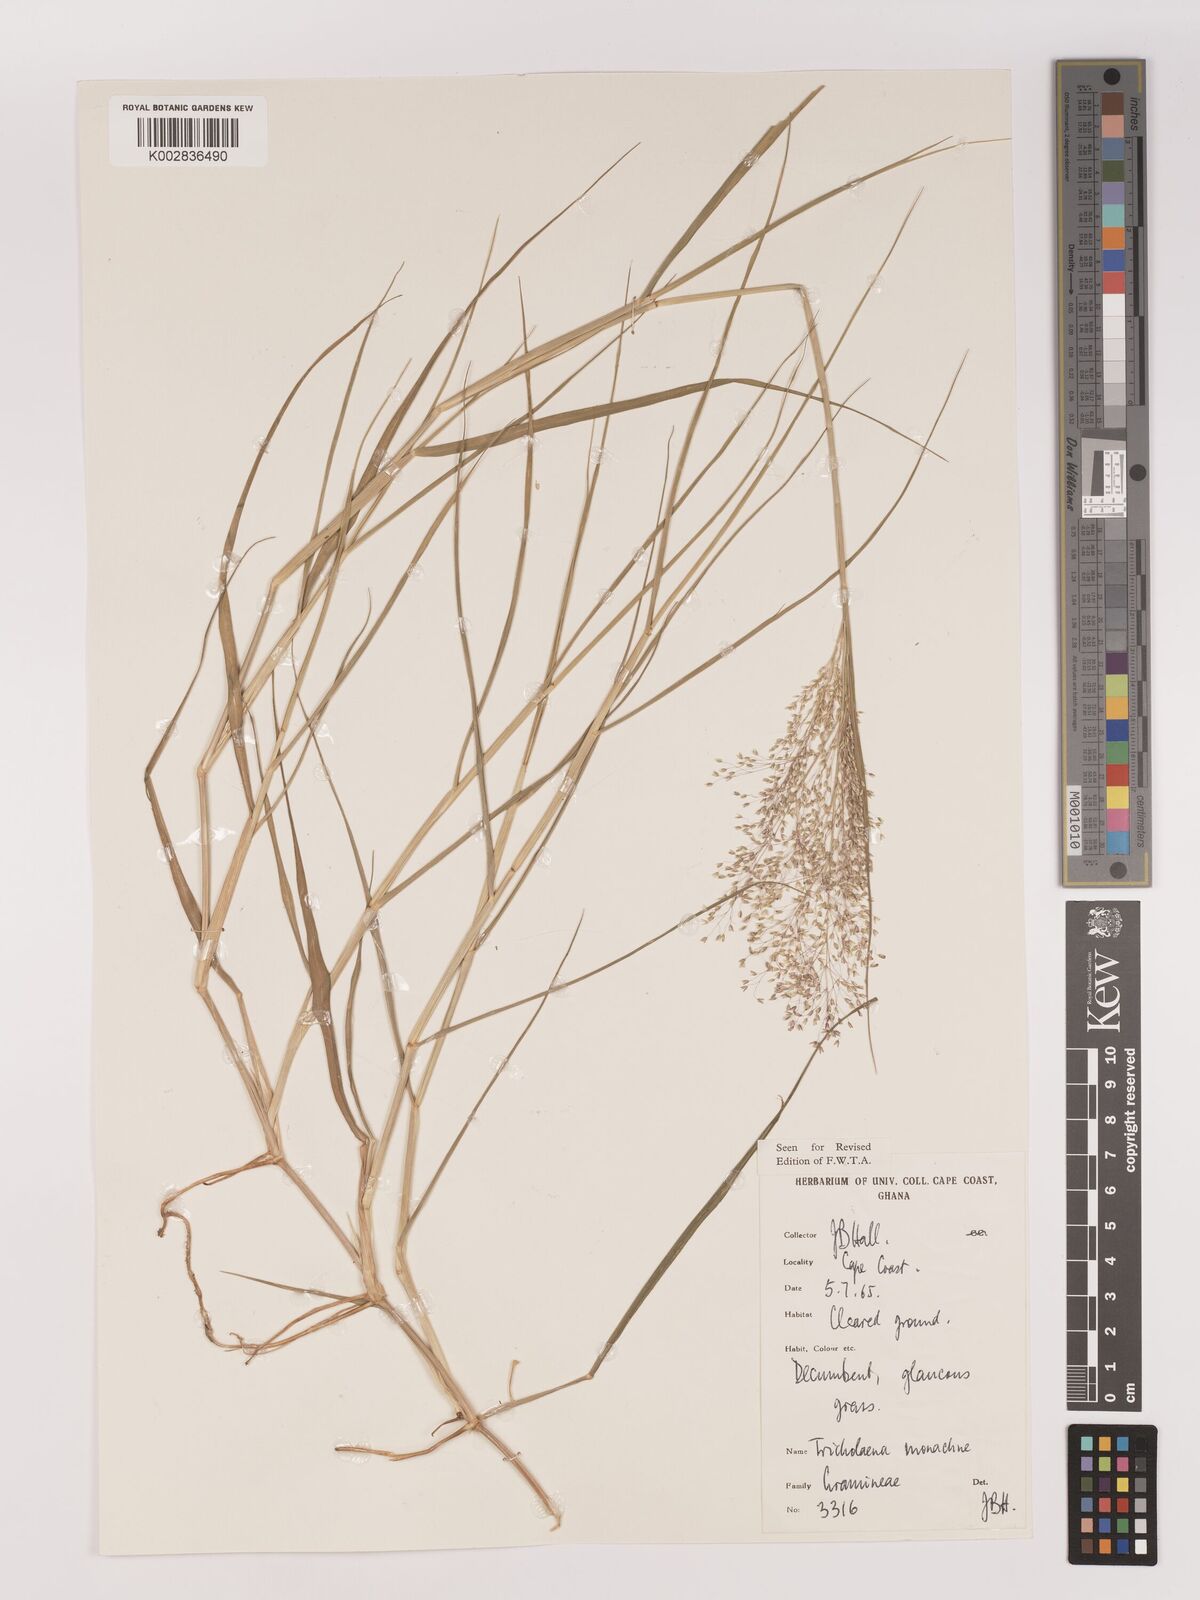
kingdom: Plantae
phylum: Tracheophyta
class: Liliopsida
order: Poales
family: Poaceae
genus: Tricholaena
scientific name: Tricholaena monachne
